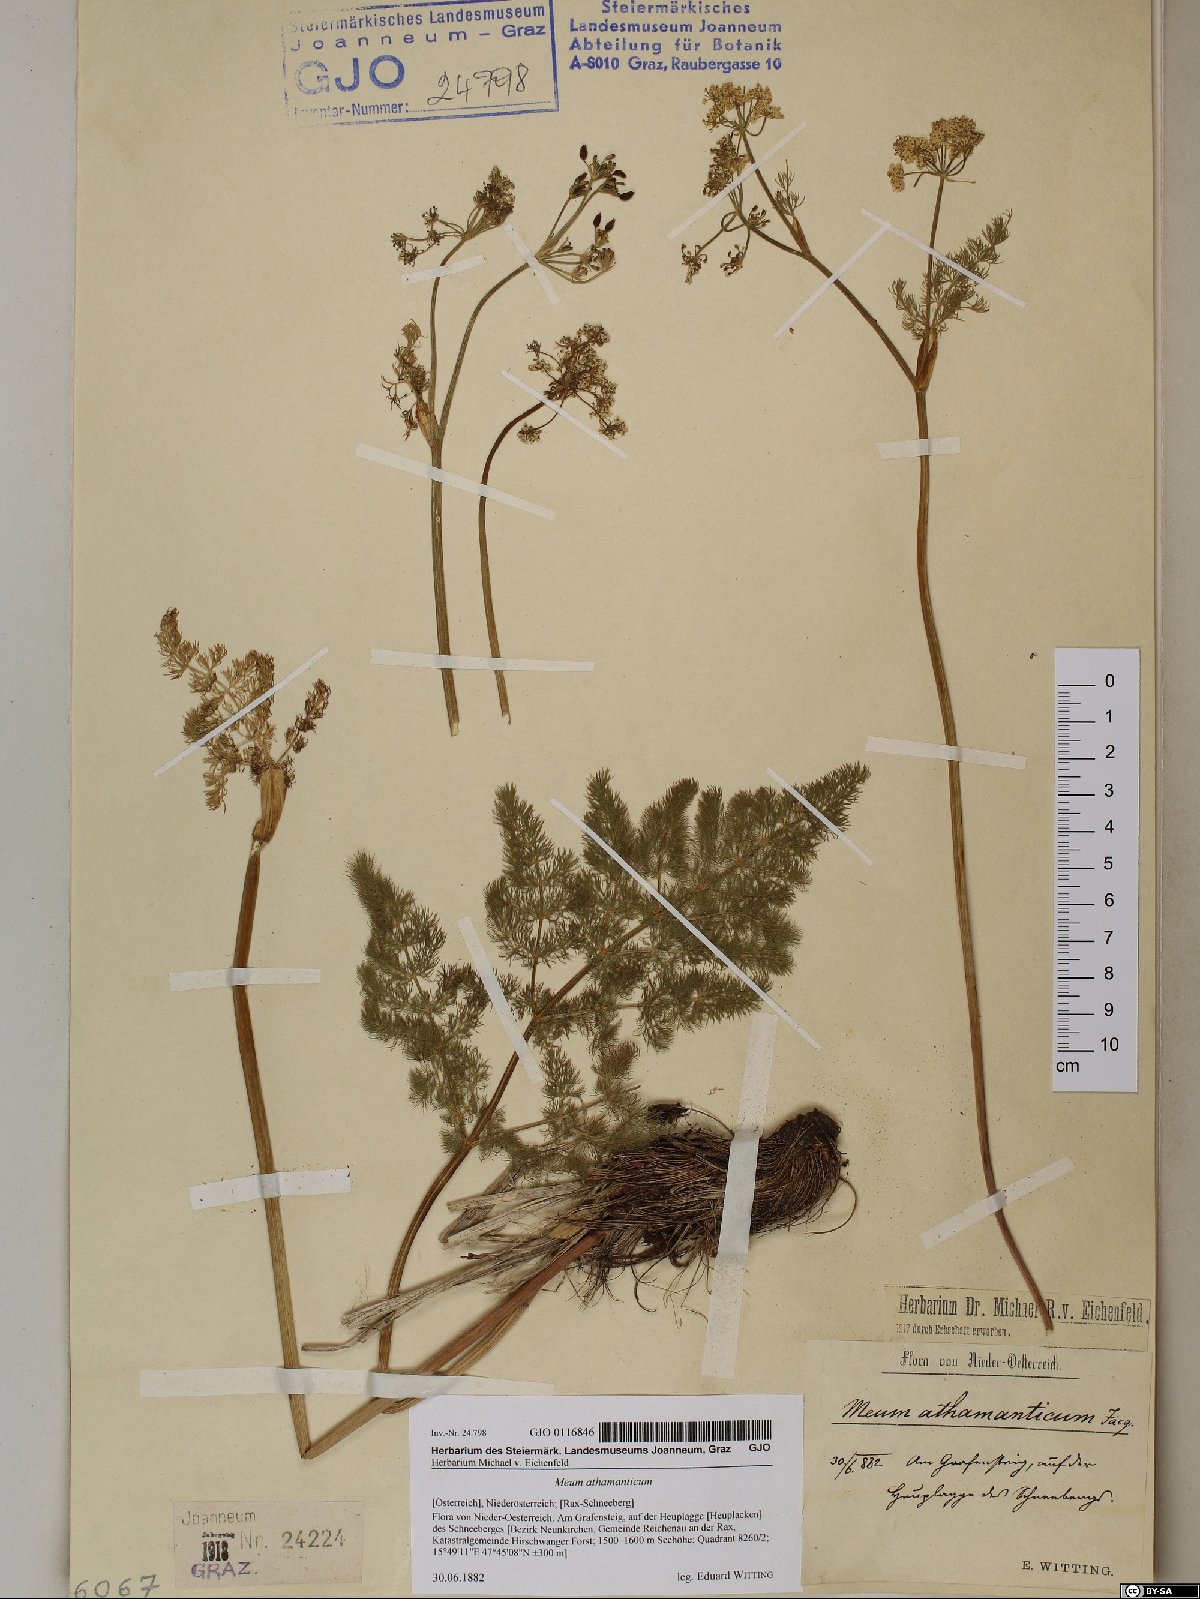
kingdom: Plantae
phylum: Tracheophyta
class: Magnoliopsida
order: Apiales
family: Apiaceae
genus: Meum
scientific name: Meum athamanticum
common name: Spignel
